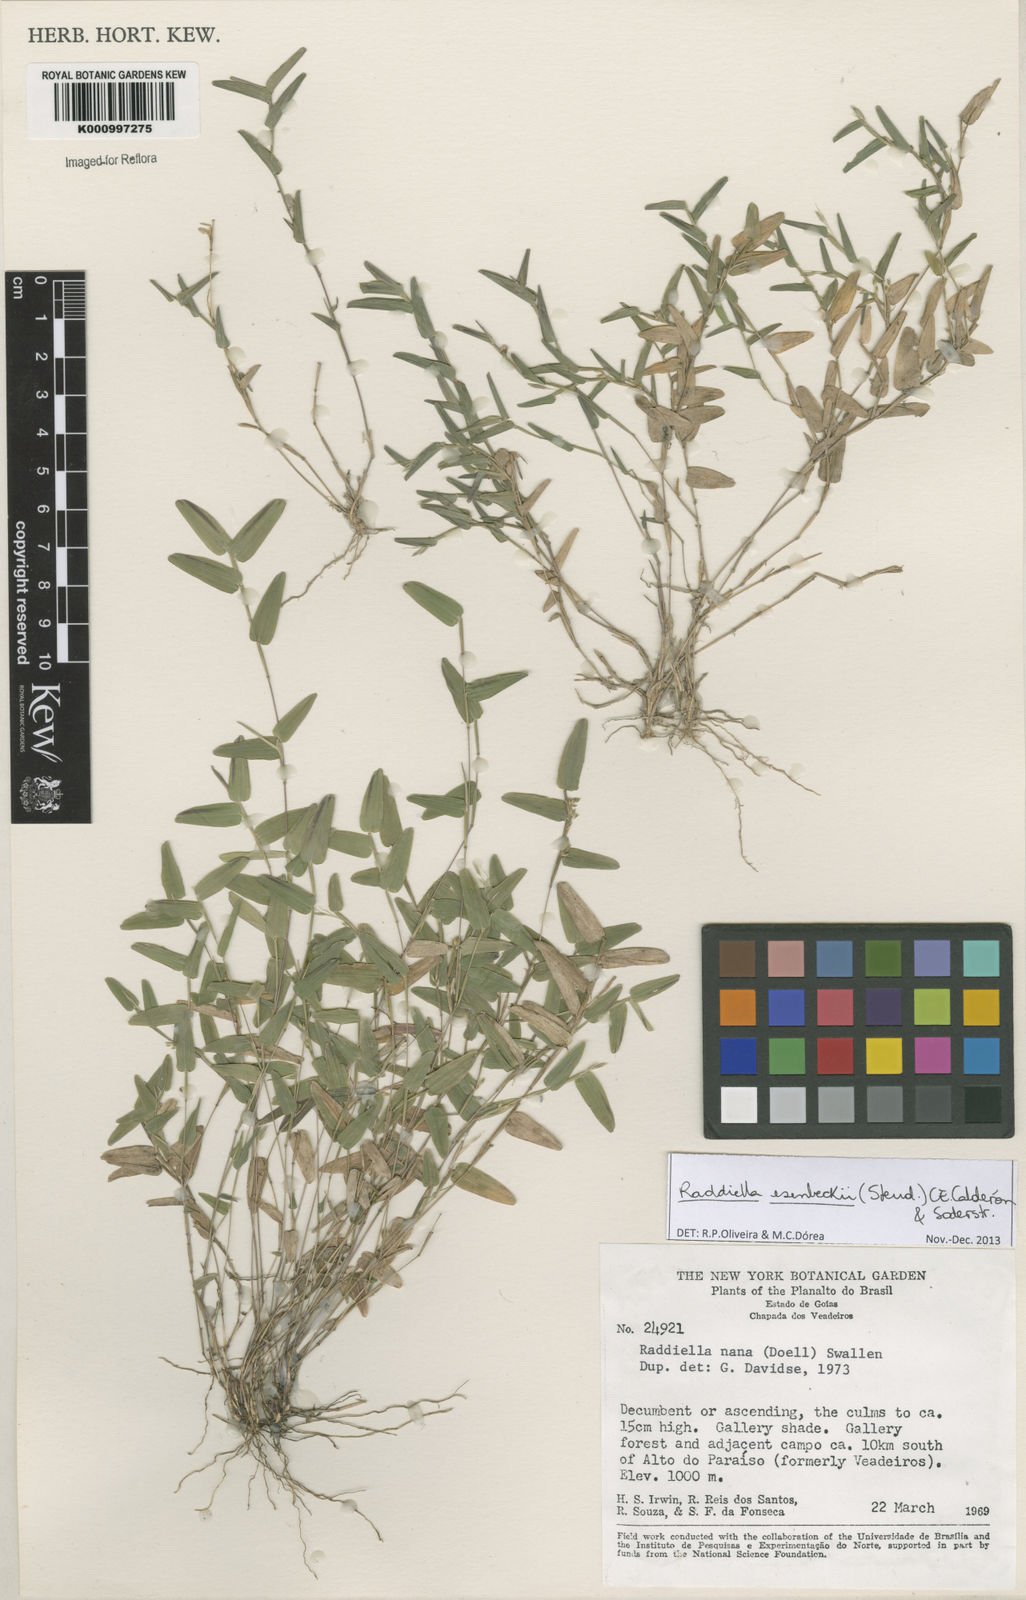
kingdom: Plantae
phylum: Tracheophyta
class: Liliopsida
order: Poales
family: Poaceae
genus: Raddiella
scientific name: Raddiella
